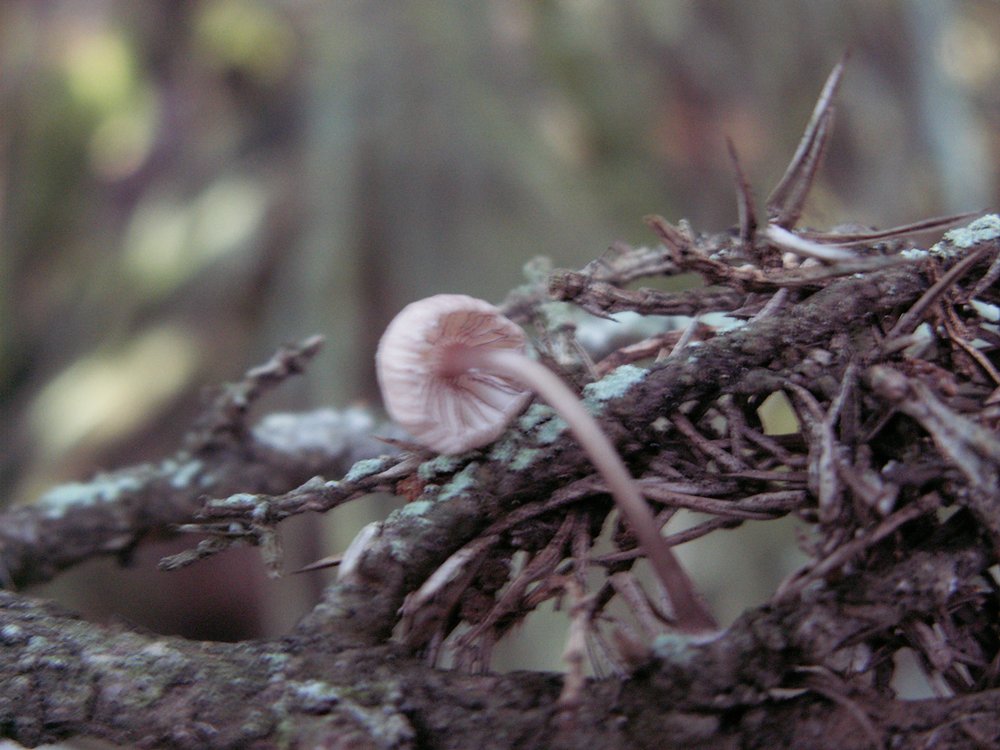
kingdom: Fungi
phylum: Basidiomycota
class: Agaricomycetes
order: Agaricales
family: Mycenaceae
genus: Mycena
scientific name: Mycena rubromarginata
